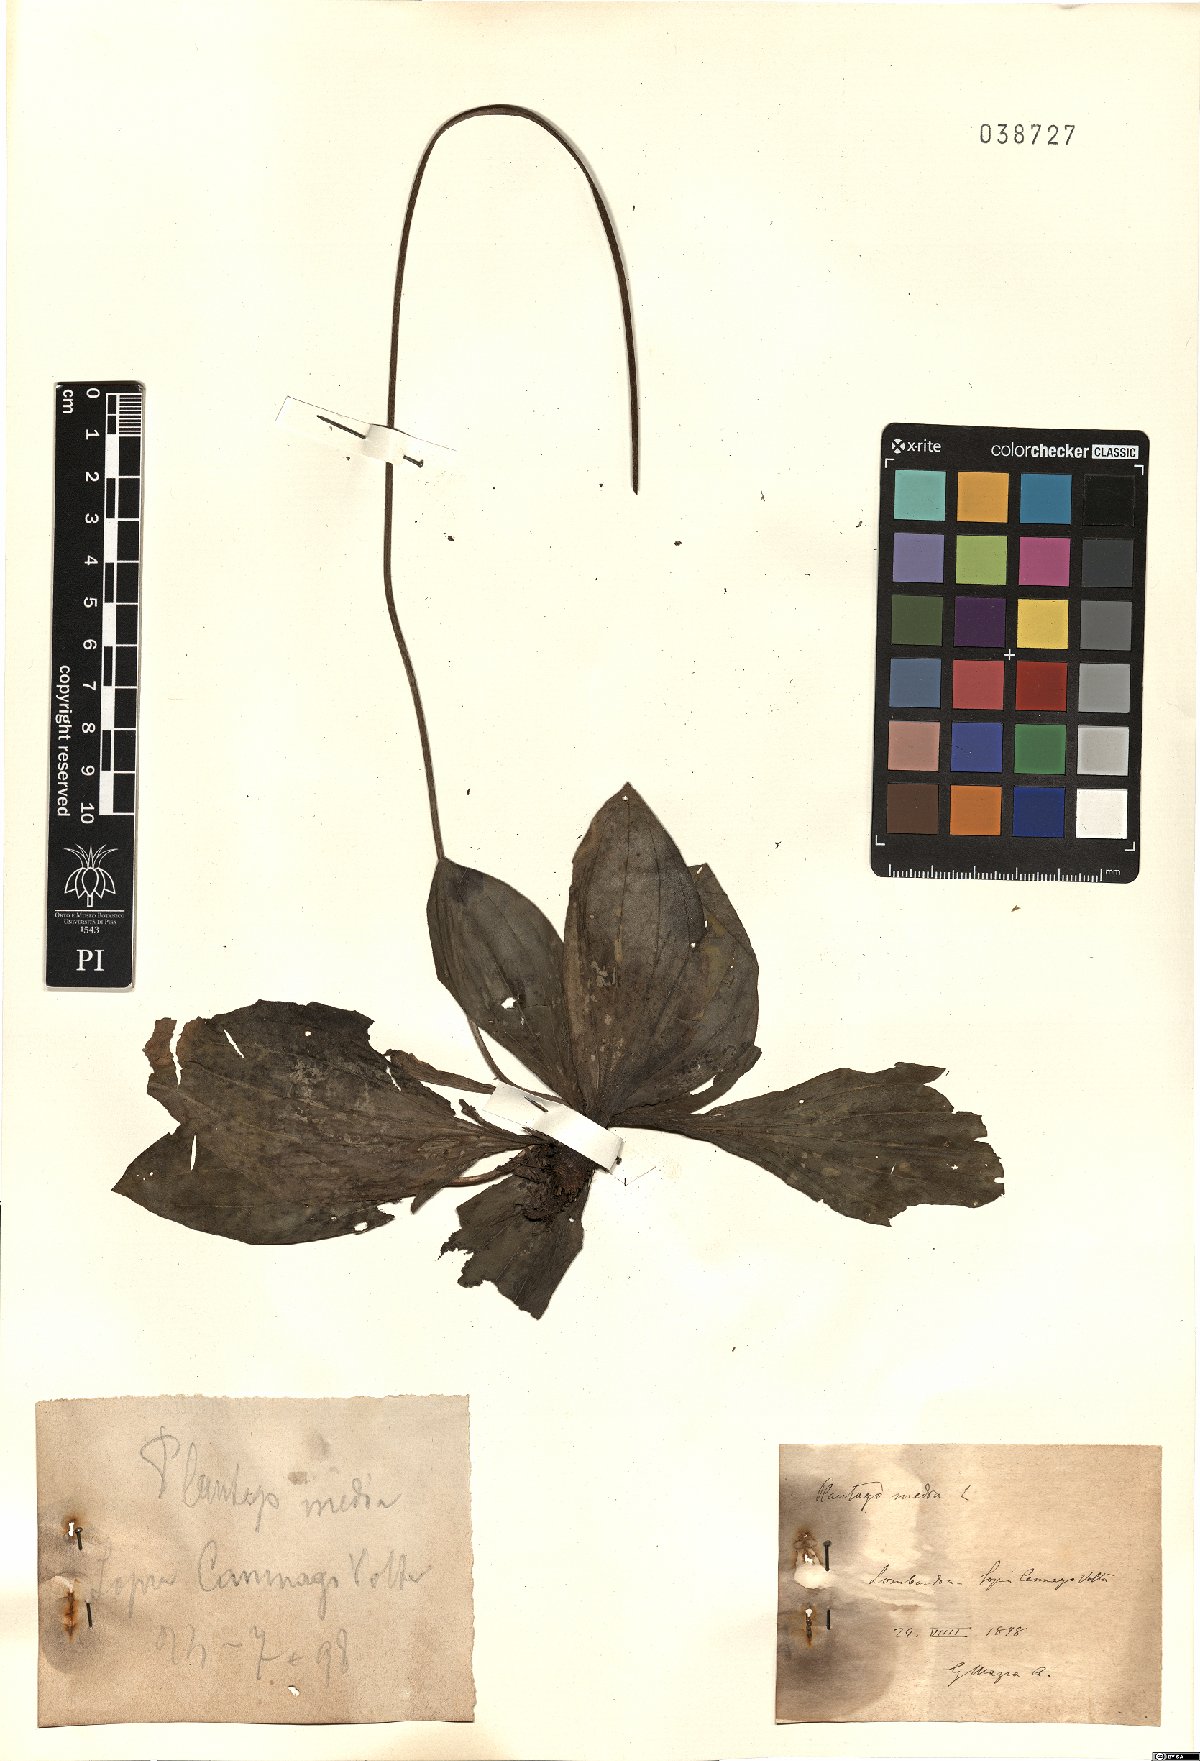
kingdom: Plantae
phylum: Tracheophyta
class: Magnoliopsida
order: Lamiales
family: Plantaginaceae
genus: Plantago
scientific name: Plantago media
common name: Hoary plantain
